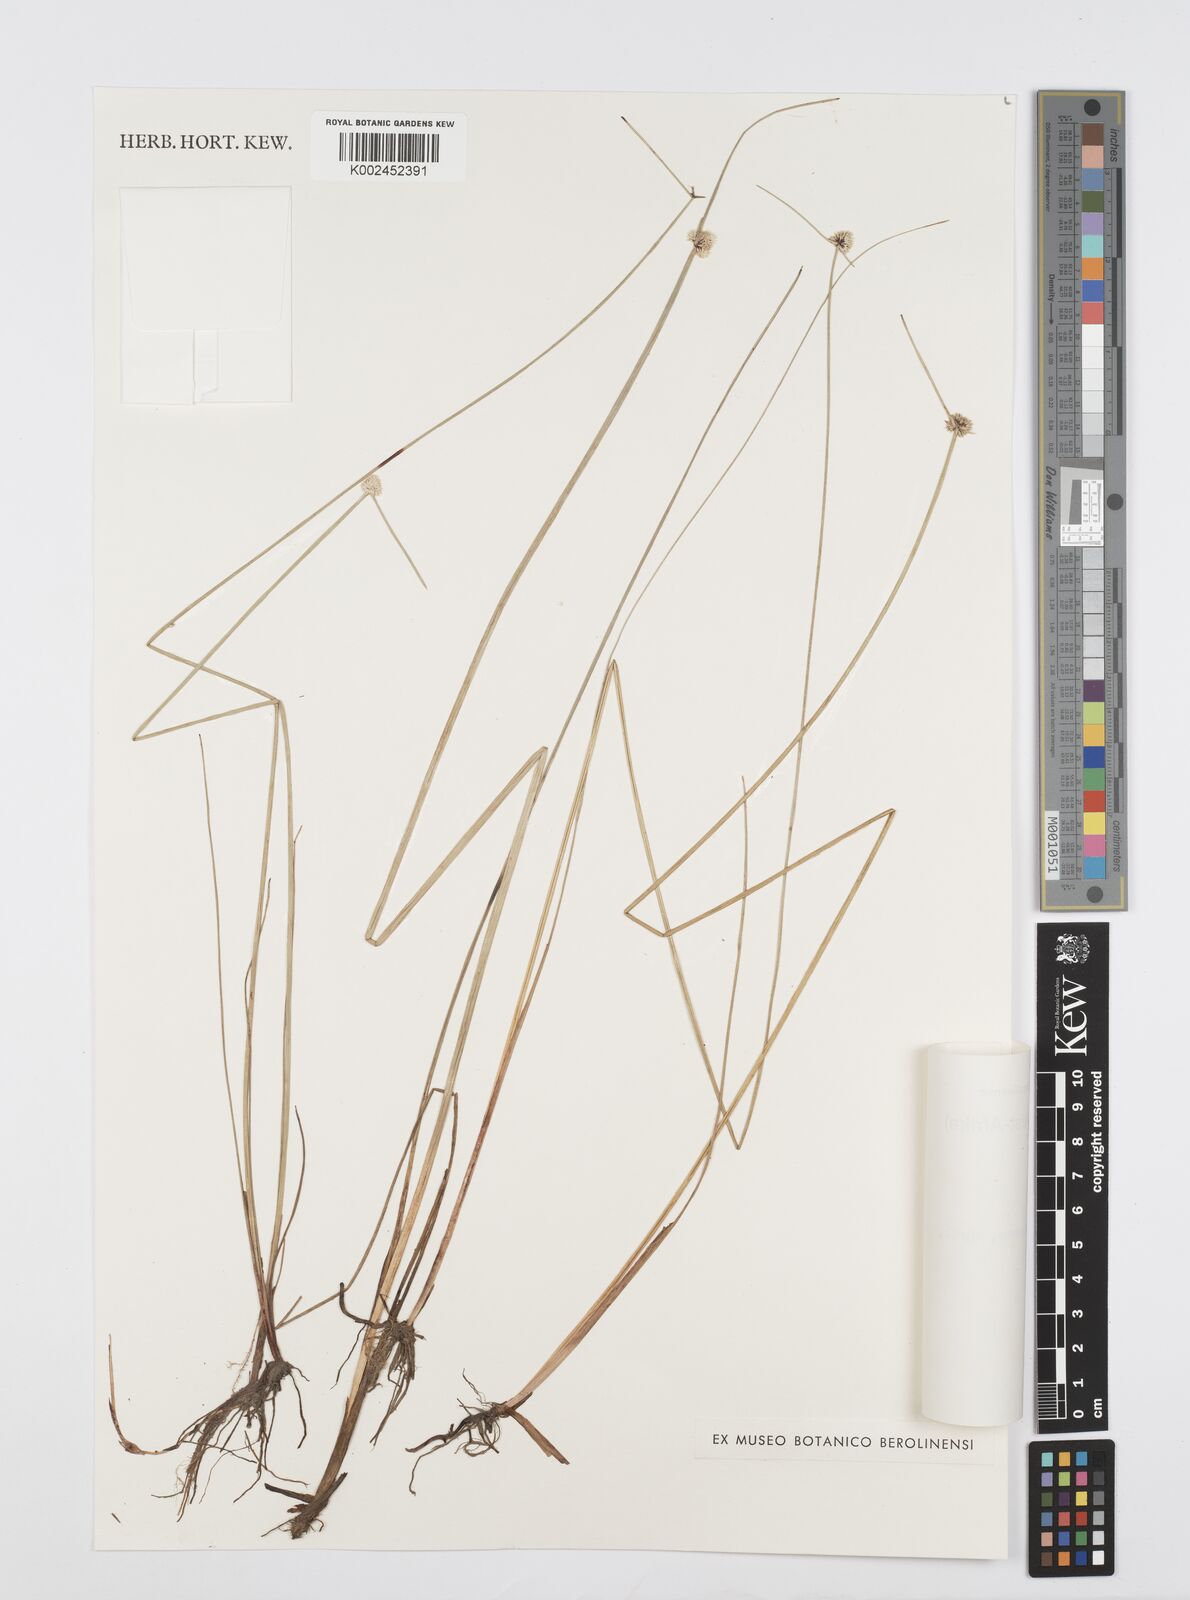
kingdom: Plantae
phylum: Tracheophyta
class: Liliopsida
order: Poales
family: Cyperaceae
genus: Cyperus
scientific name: Cyperus albiceps
